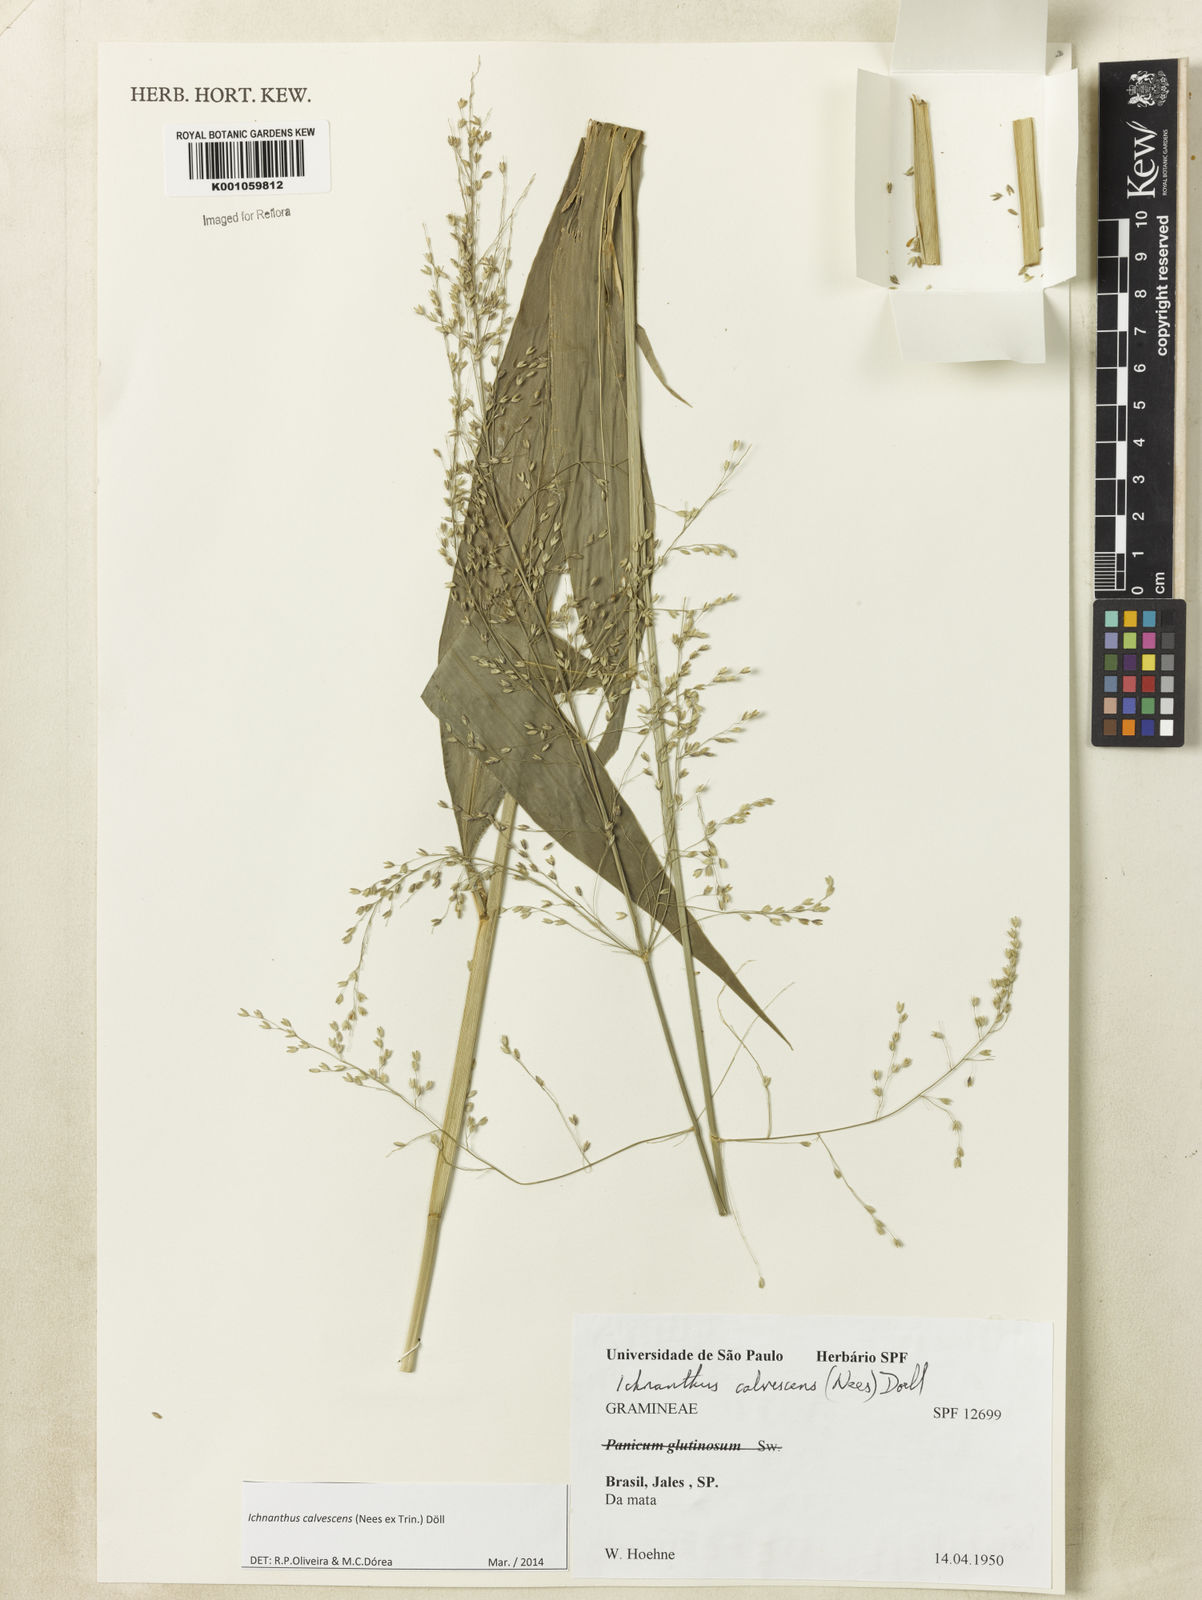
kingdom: Plantae
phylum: Tracheophyta
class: Liliopsida
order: Poales
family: Poaceae
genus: Ichnanthus
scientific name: Ichnanthus
